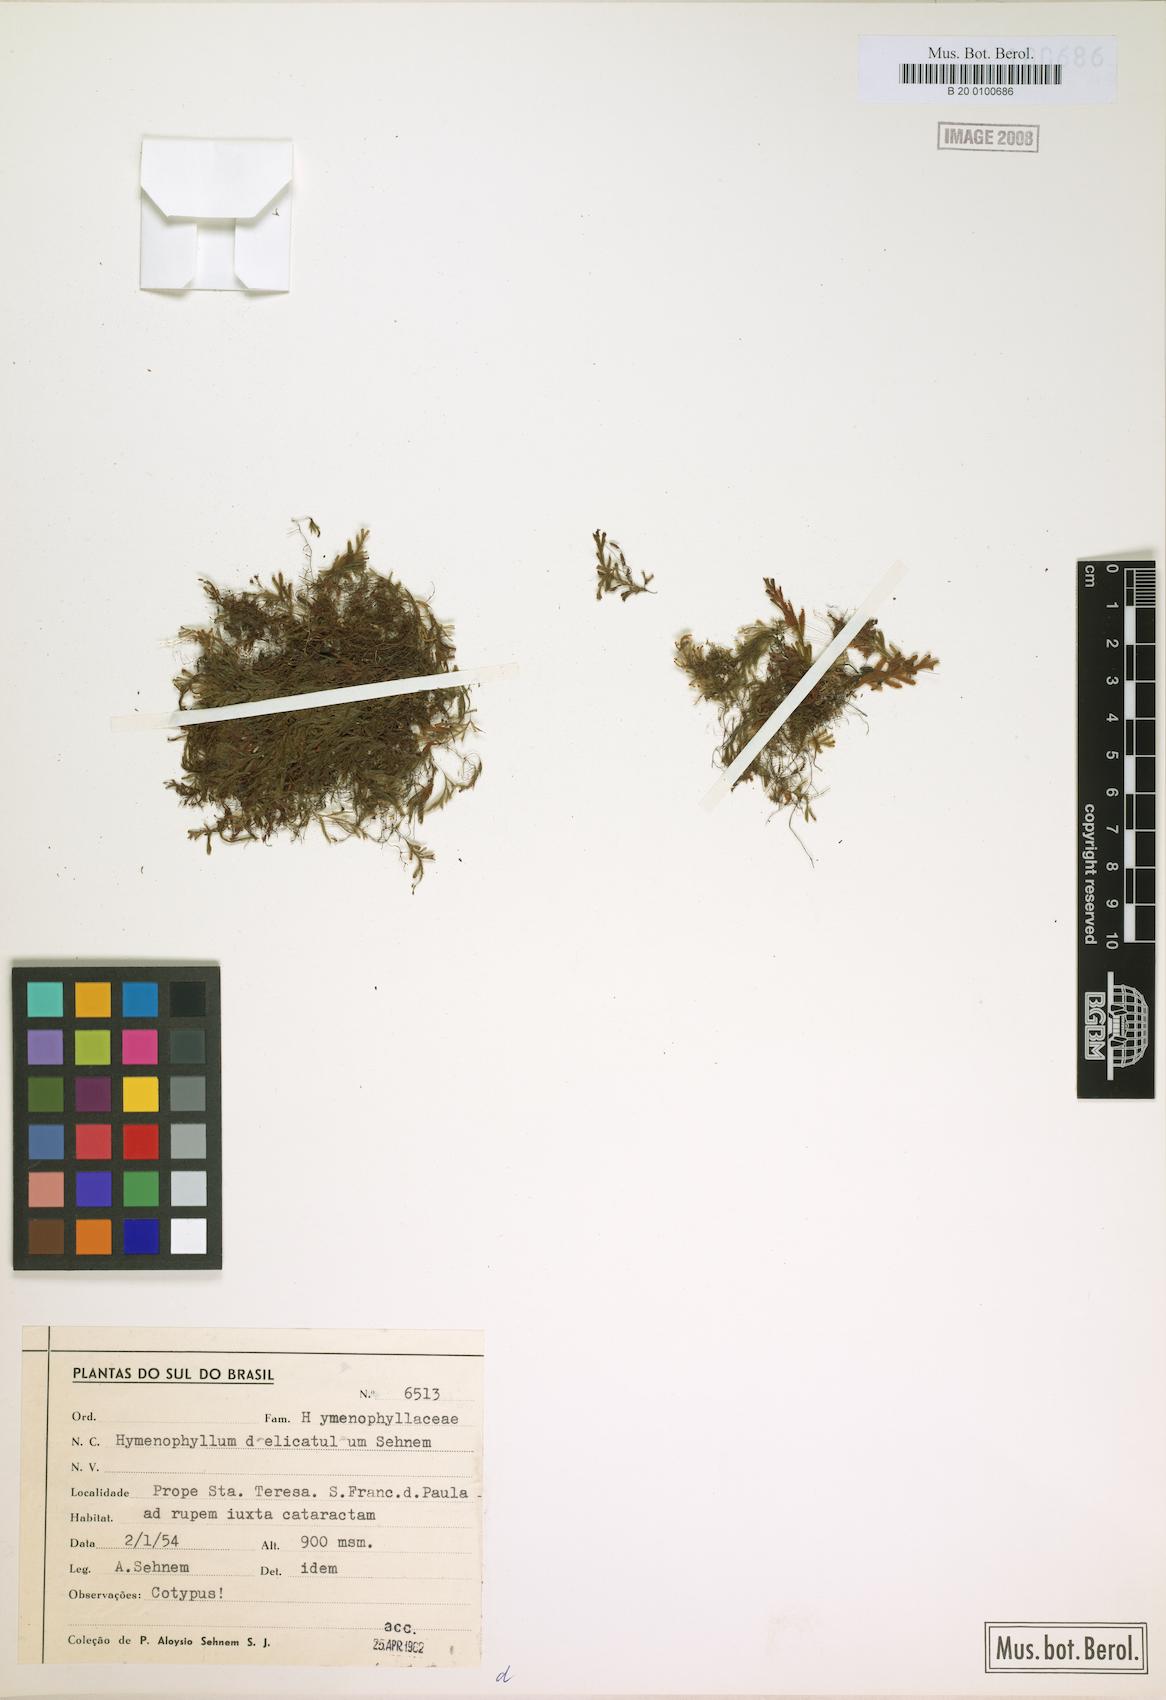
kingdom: Plantae
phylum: Tracheophyta
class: Polypodiopsida
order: Hymenophyllales
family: Hymenophyllaceae
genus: Hymenophyllum
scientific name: Hymenophyllum delicatulum
